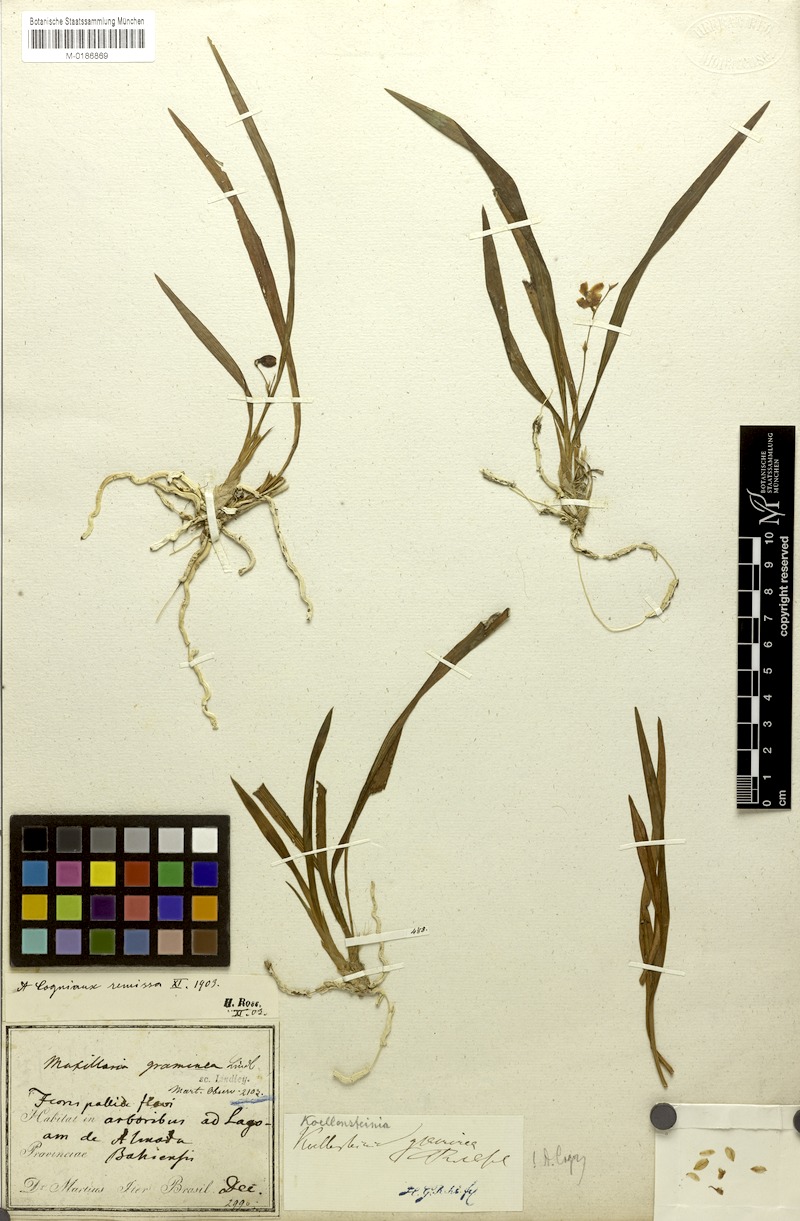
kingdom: Plantae
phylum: Tracheophyta
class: Liliopsida
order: Asparagales
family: Orchidaceae
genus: Koellensteinia
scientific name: Koellensteinia graminea
